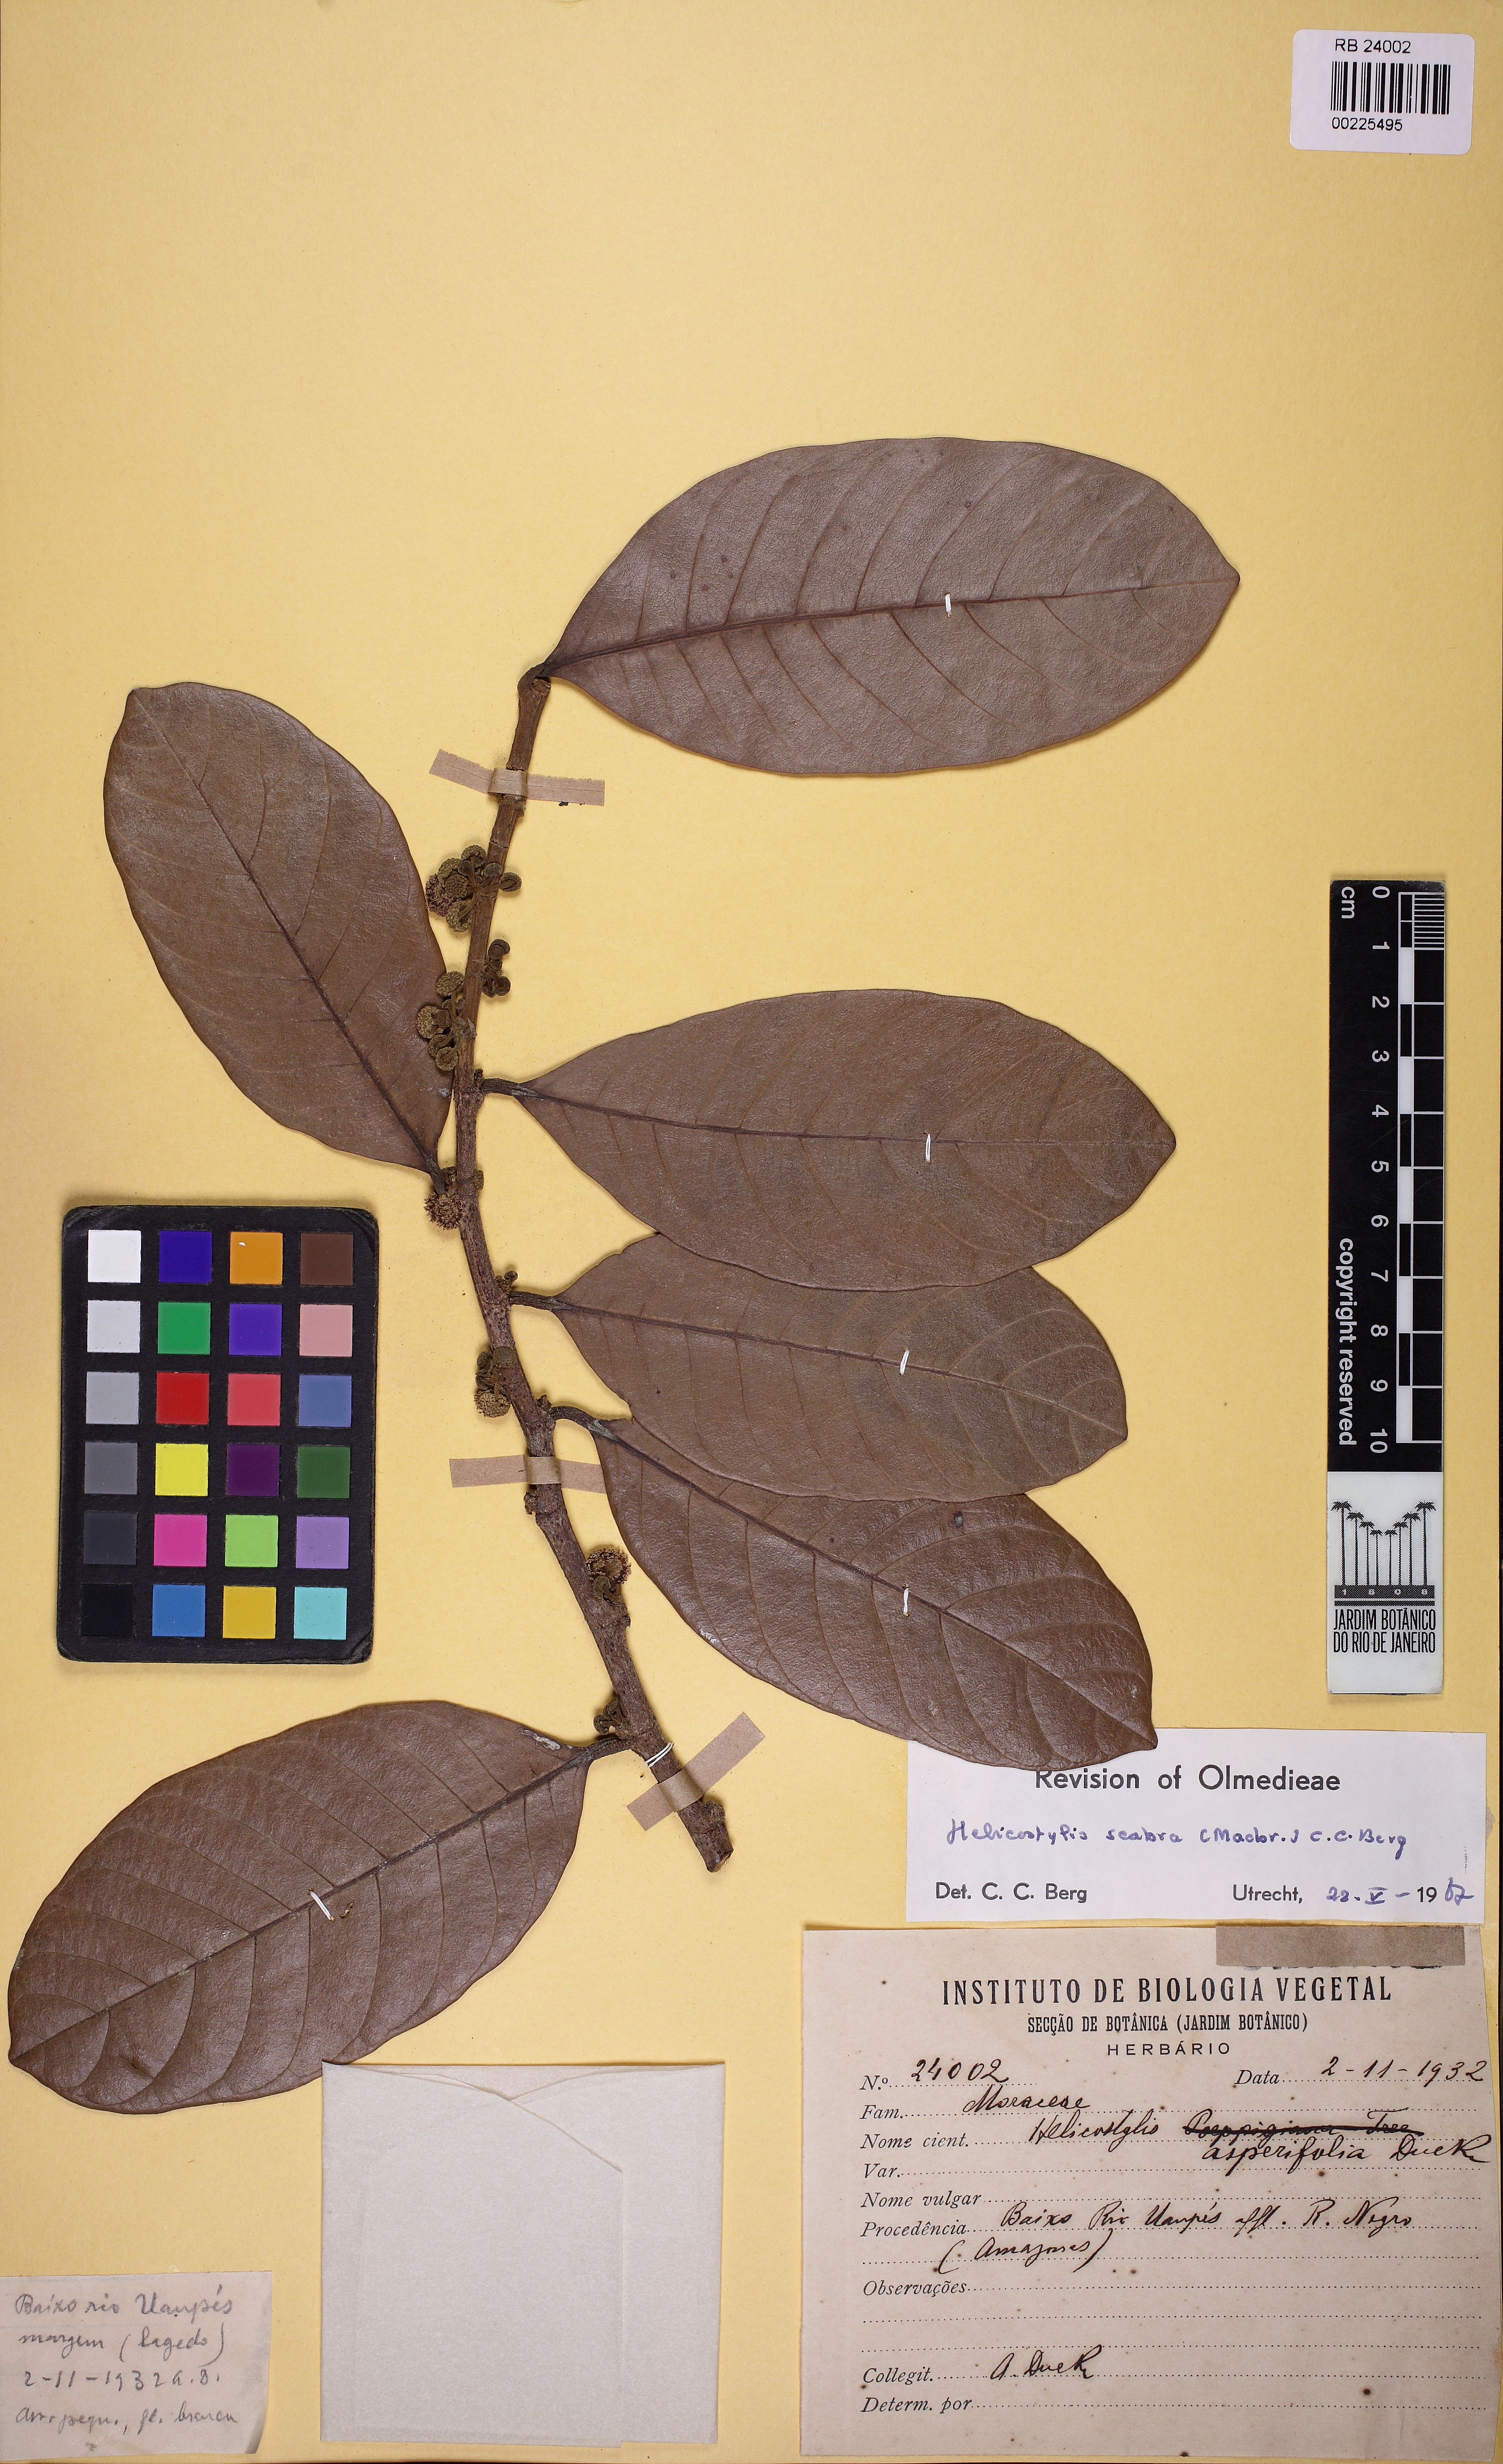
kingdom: Plantae
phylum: Tracheophyta
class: Magnoliopsida
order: Rosales
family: Moraceae
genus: Helicostylis
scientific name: Helicostylis tomentosa
